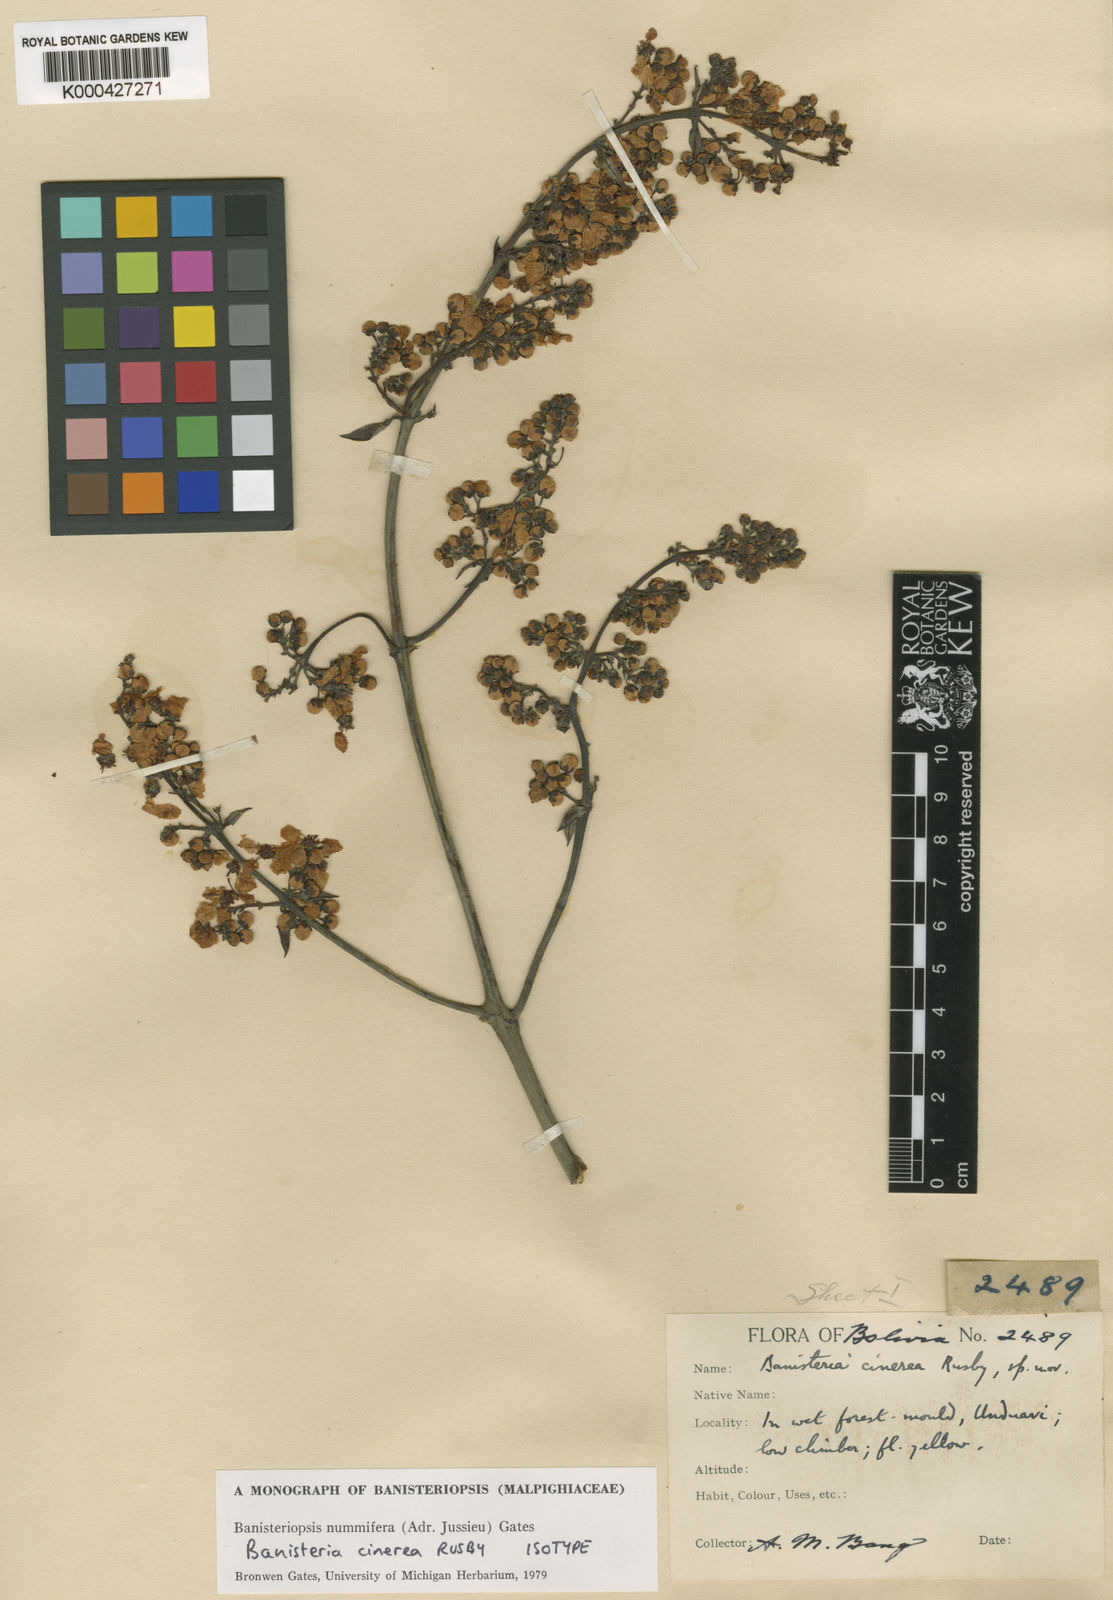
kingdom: Plantae
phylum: Tracheophyta
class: Magnoliopsida
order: Malpighiales
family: Malpighiaceae
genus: Banisteriopsis
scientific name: Banisteriopsis nummifera
